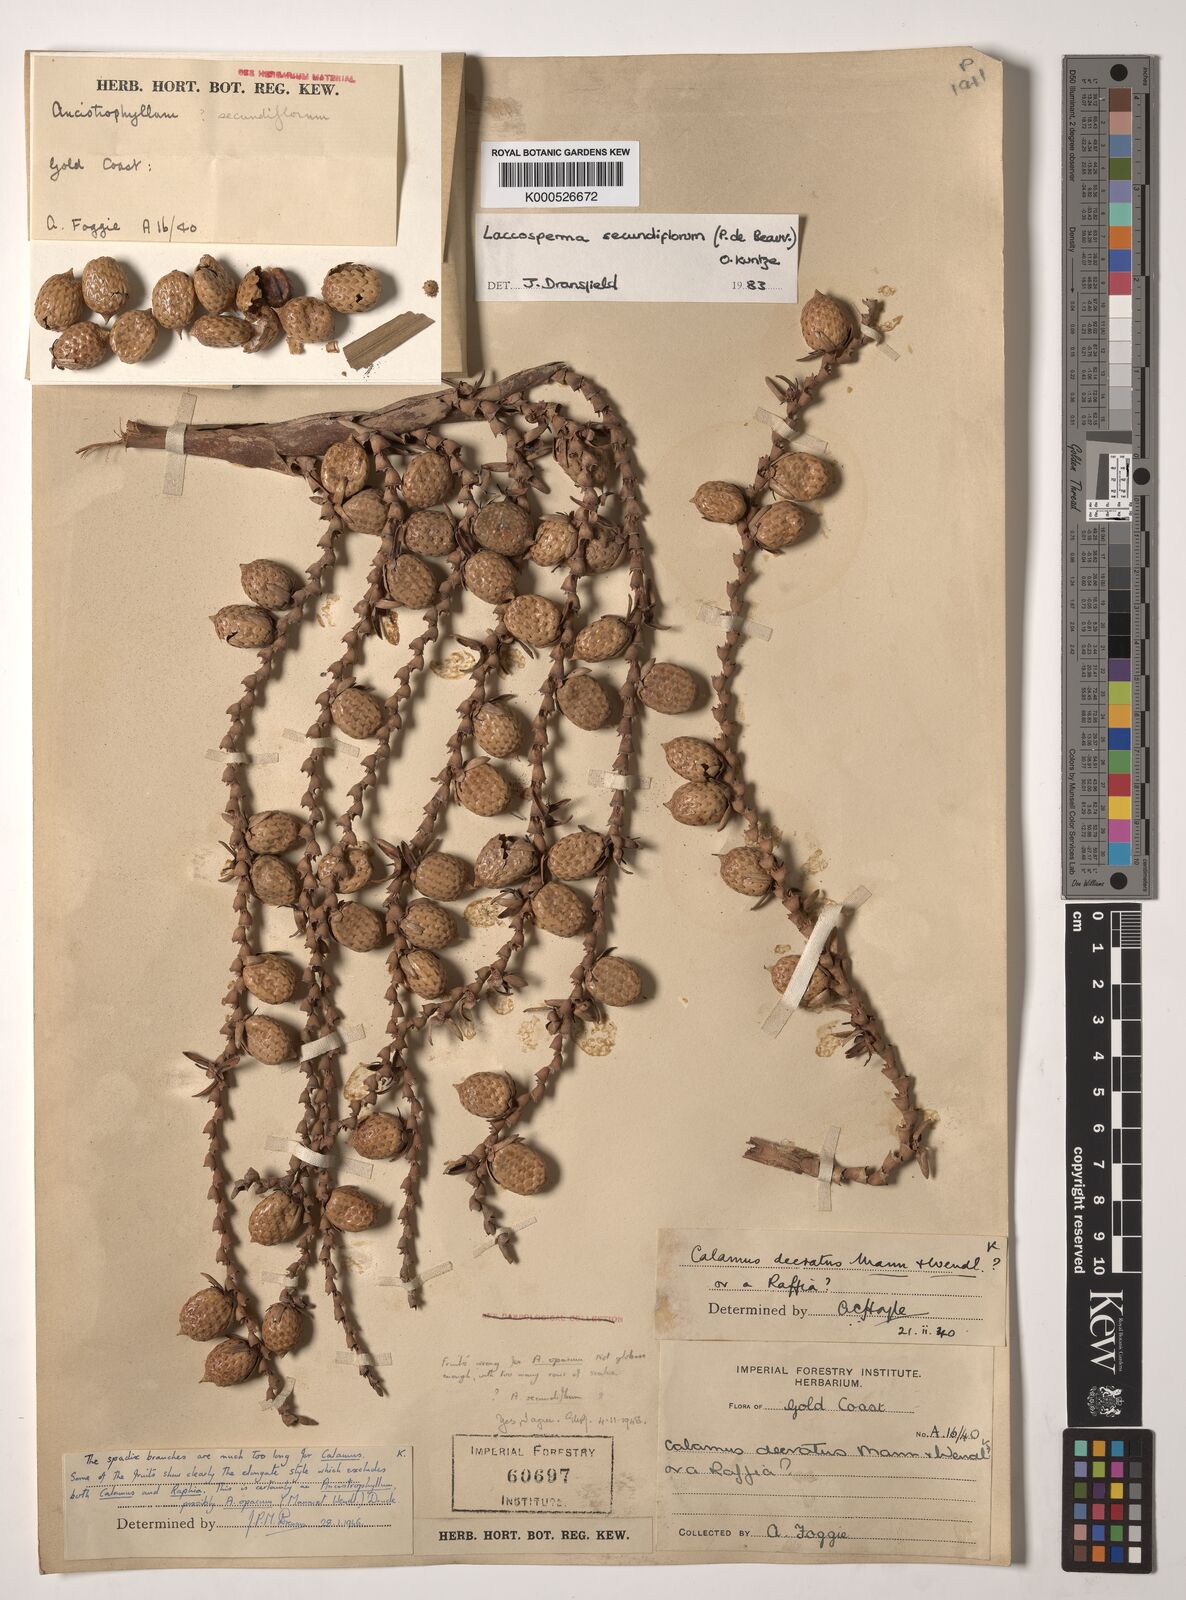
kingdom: Plantae
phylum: Tracheophyta
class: Liliopsida
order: Arecales
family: Arecaceae
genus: Laccosperma
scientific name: Laccosperma secundiflorum
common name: Rattan
